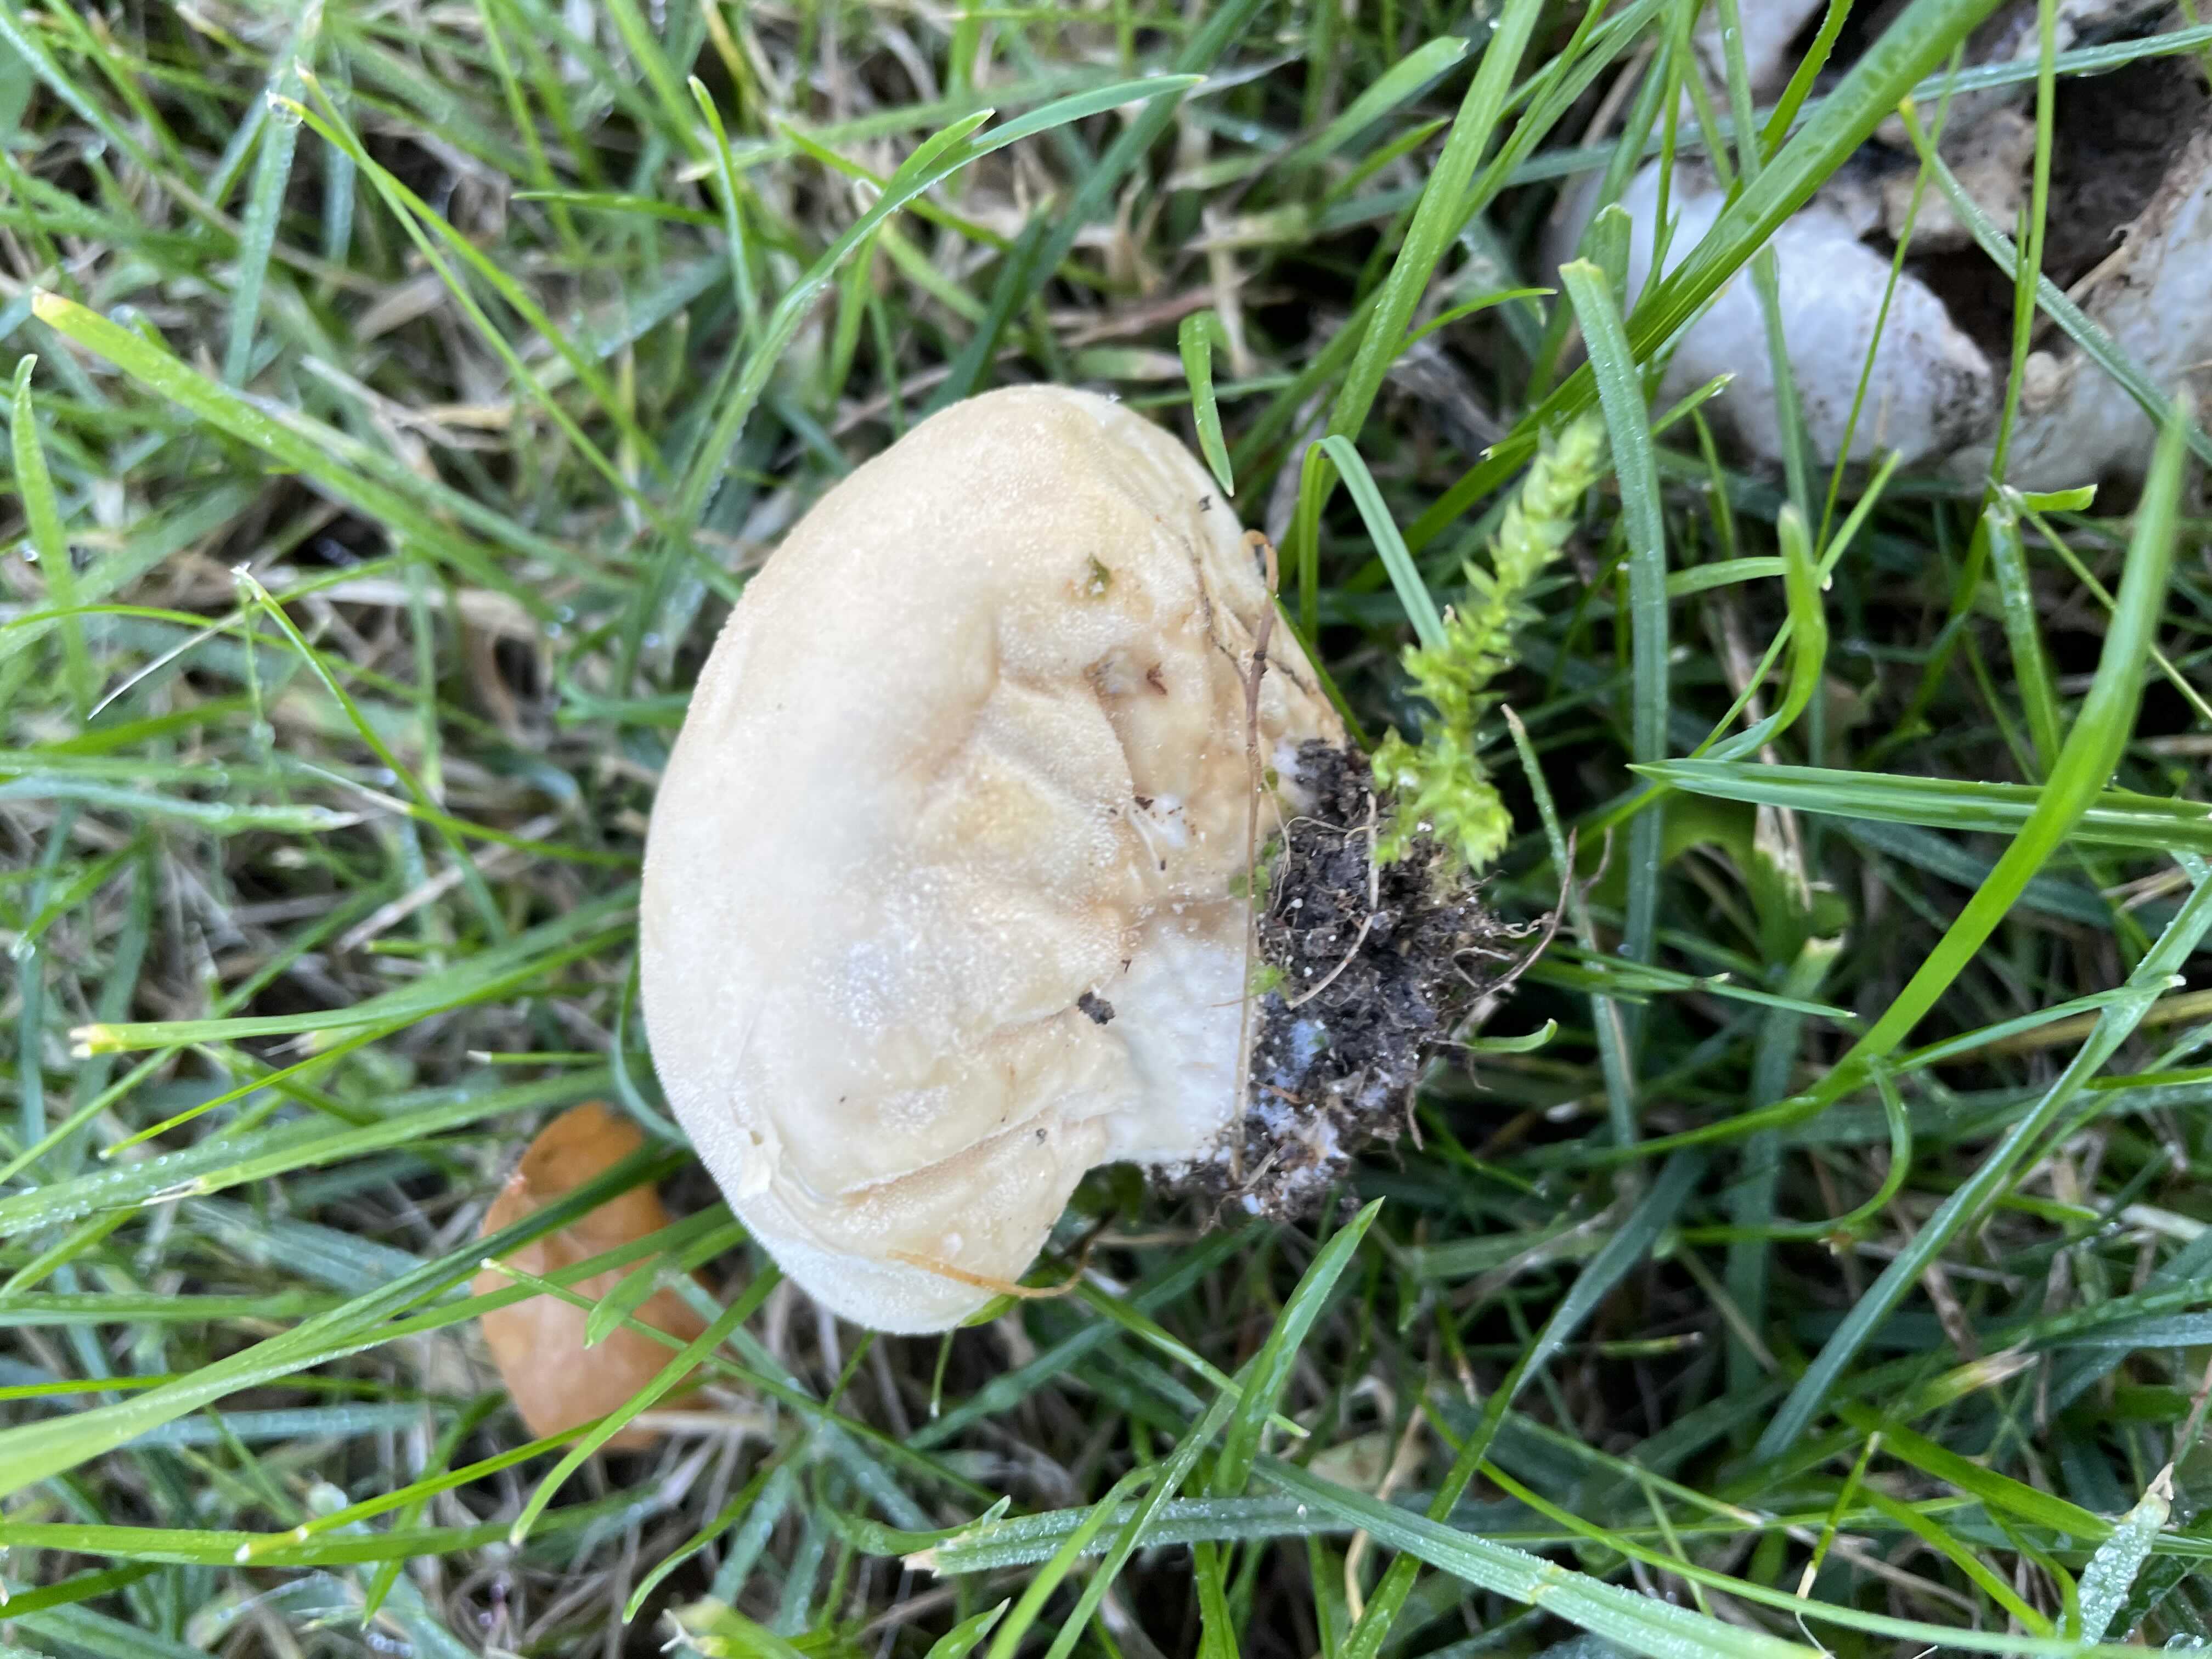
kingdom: Fungi
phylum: Basidiomycota
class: Agaricomycetes
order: Agaricales
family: Lycoperdaceae
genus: Lycoperdon
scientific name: Lycoperdon pratense
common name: flad støvbold
